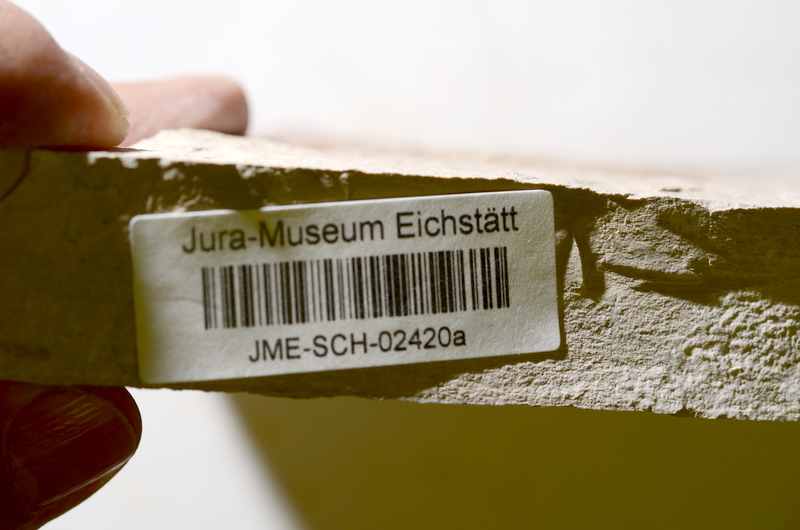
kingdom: Animalia
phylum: Chordata
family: Ascalaboidae
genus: Tharsis
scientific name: Tharsis dubius
